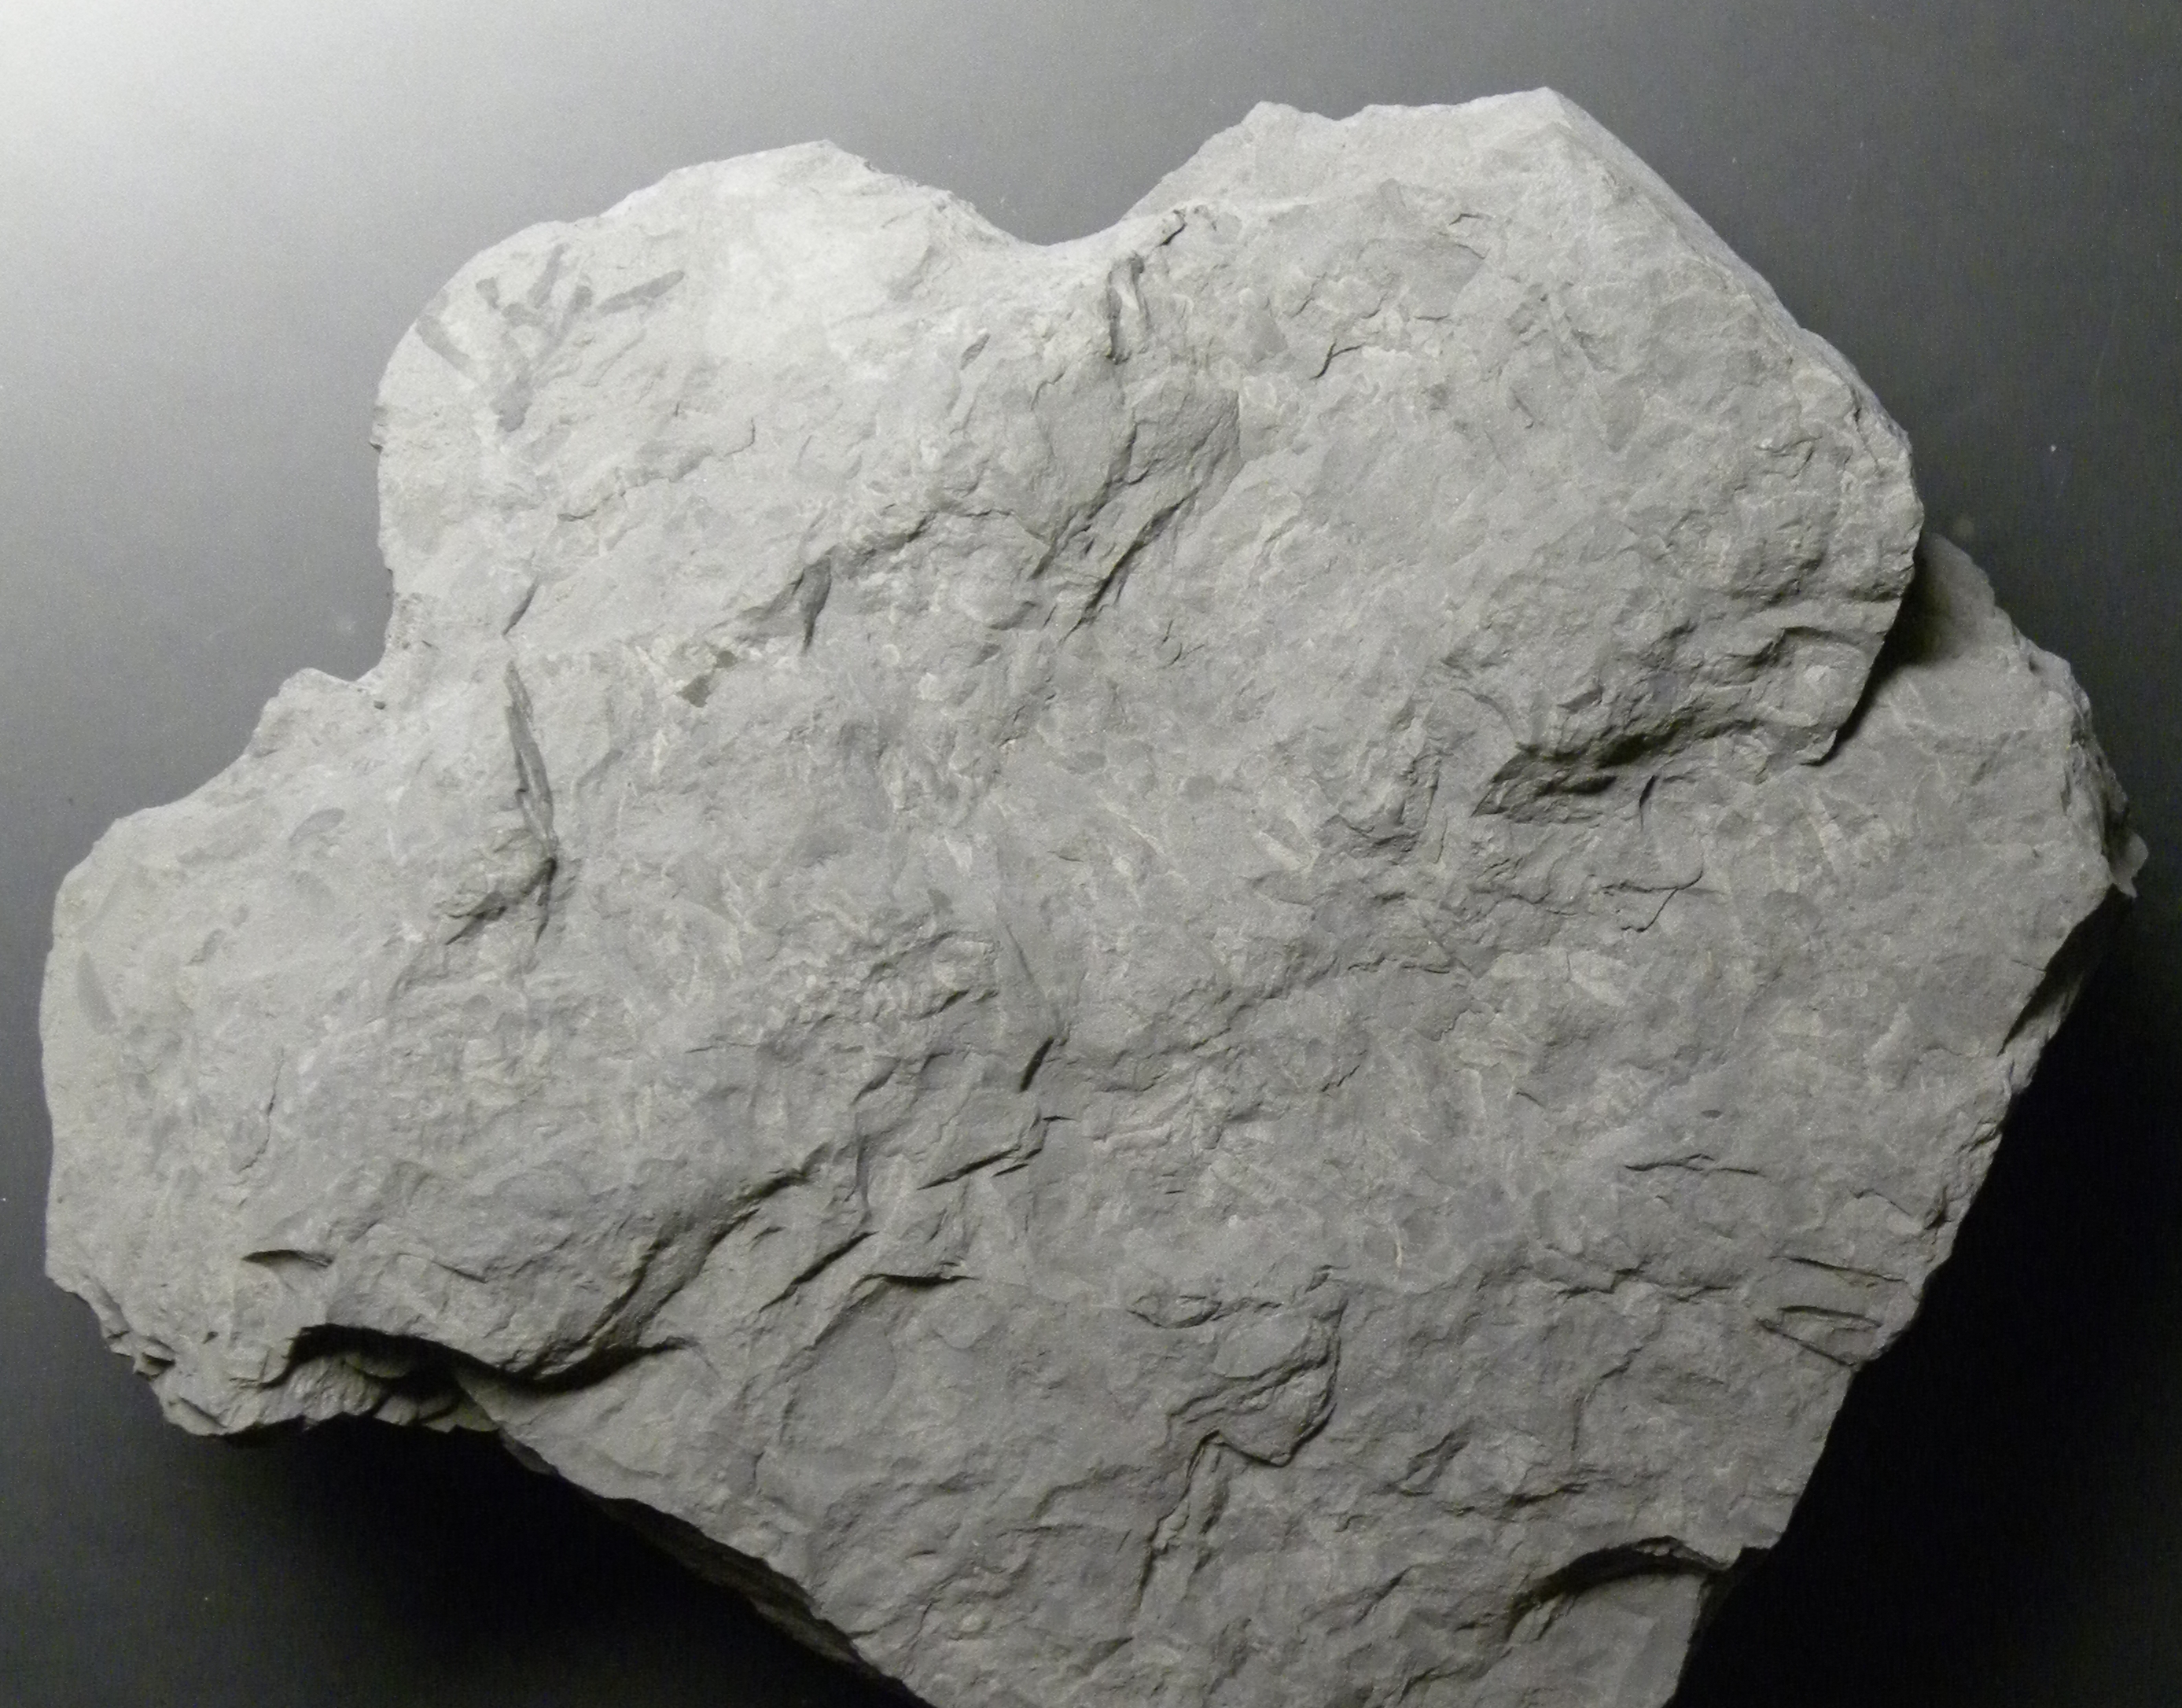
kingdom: Animalia
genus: Chondrites
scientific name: Chondrites
